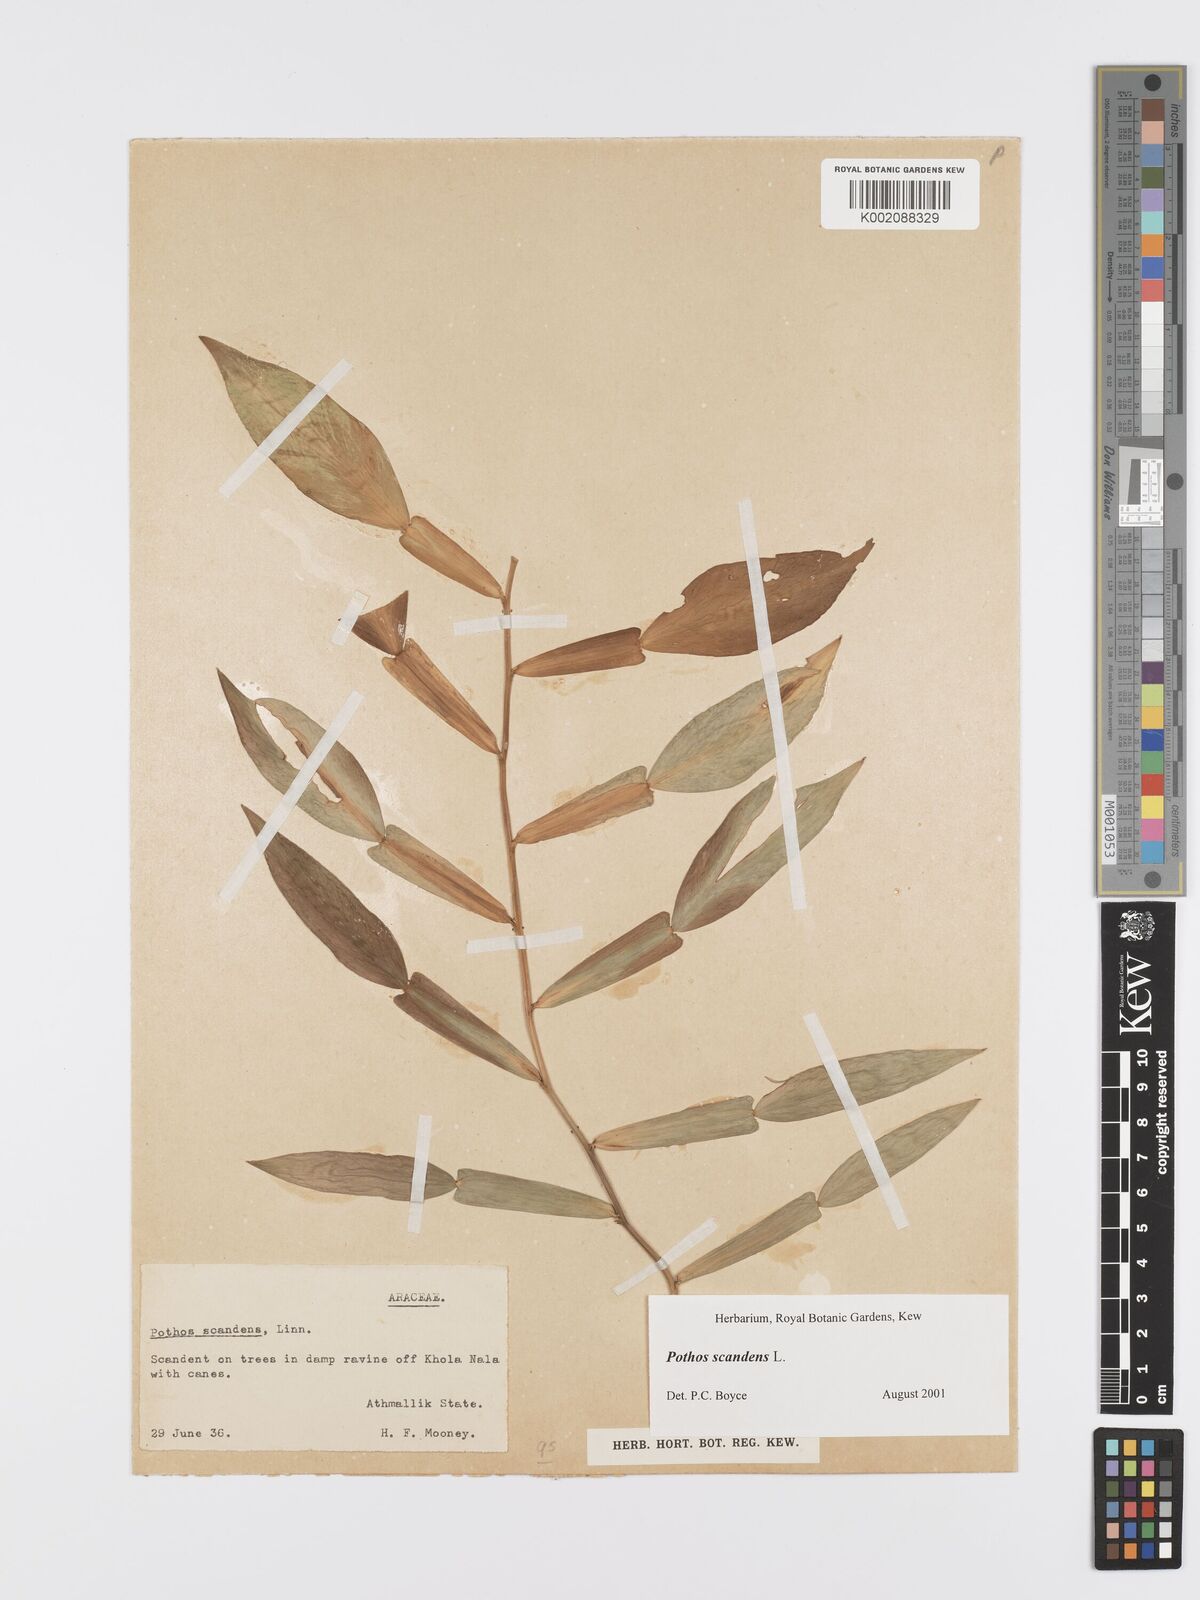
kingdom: Plantae
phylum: Tracheophyta
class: Liliopsida
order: Alismatales
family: Araceae
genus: Pothos
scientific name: Pothos scandens
